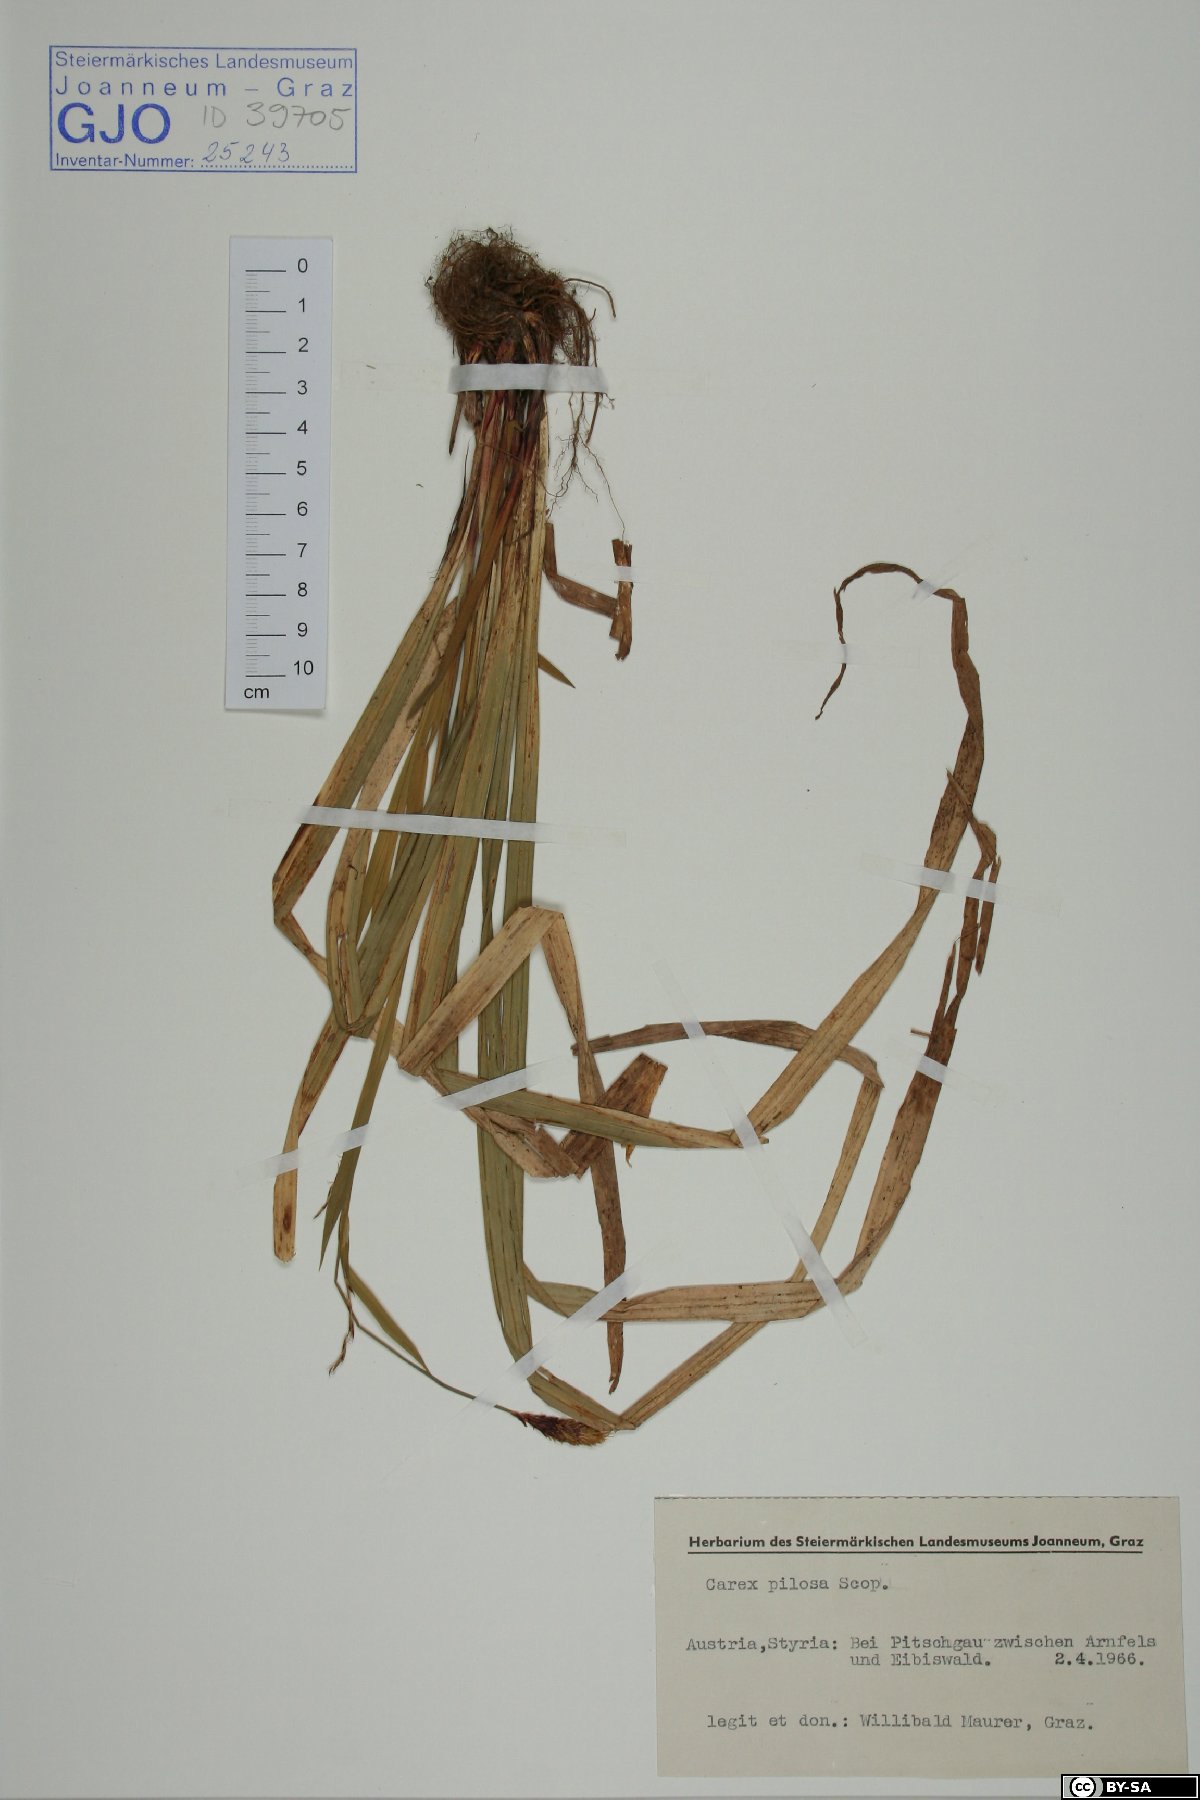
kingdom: Plantae
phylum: Tracheophyta
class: Liliopsida
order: Poales
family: Cyperaceae
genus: Carex
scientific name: Carex pilosa
